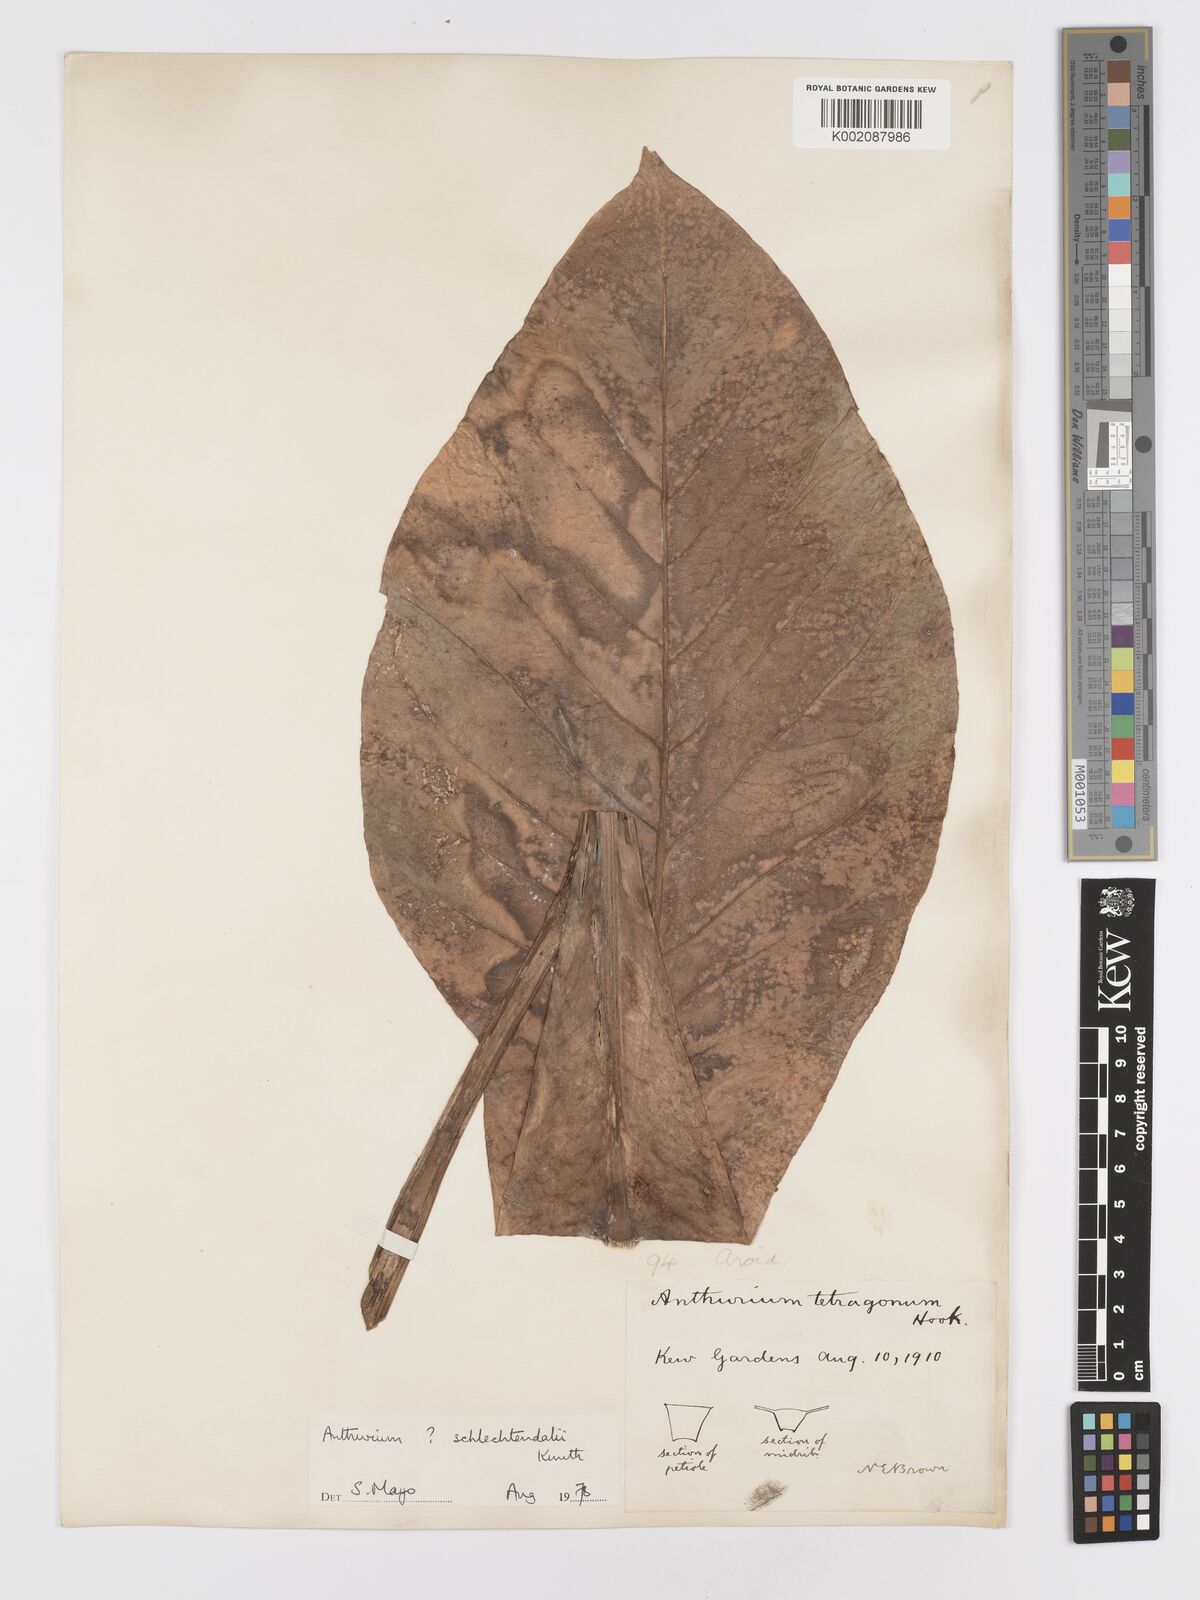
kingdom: Plantae
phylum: Tracheophyta
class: Liliopsida
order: Alismatales
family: Araceae
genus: Anthurium
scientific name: Anthurium schlechtendalii
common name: Laceleaf
